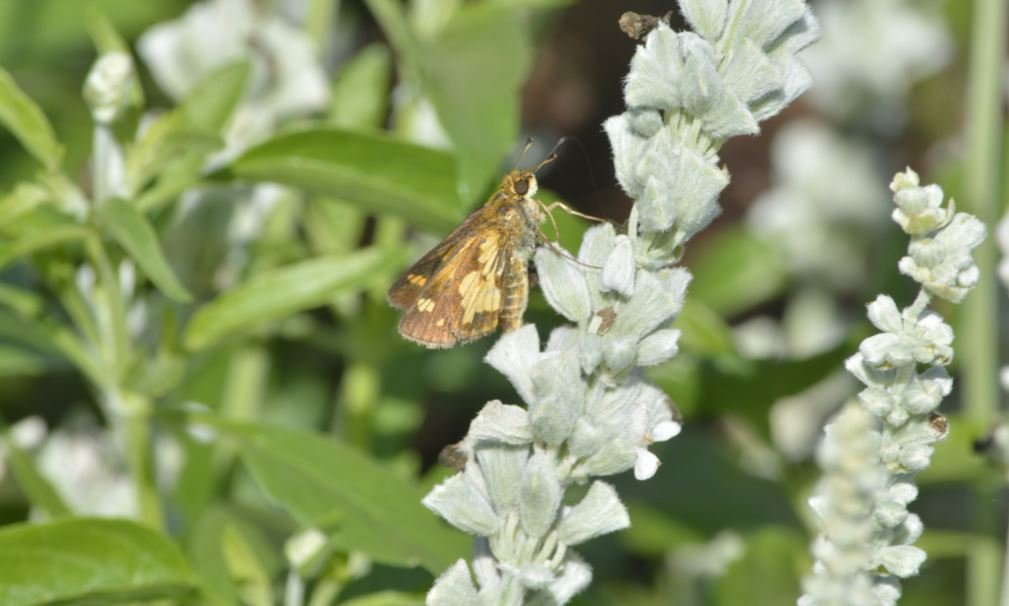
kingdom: Animalia
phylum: Arthropoda
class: Insecta
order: Lepidoptera
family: Hesperiidae
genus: Polites
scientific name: Polites coras
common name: Peck's Skipper
